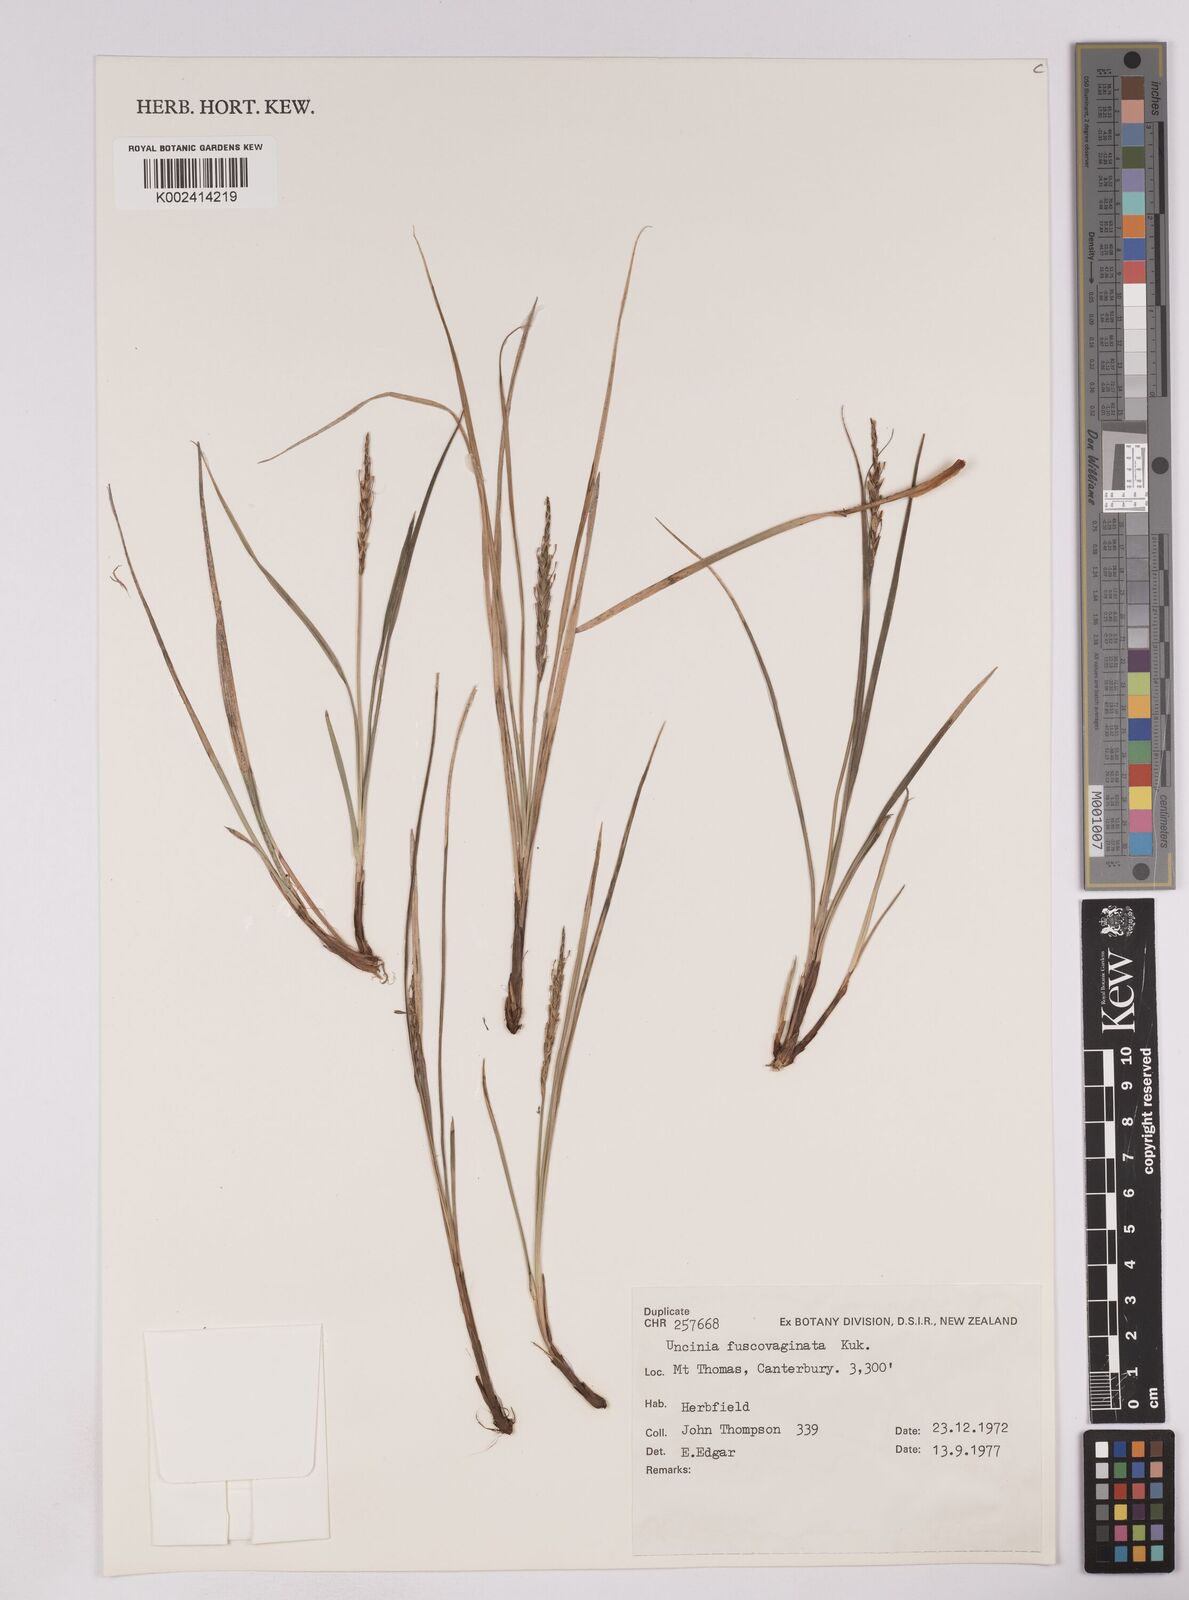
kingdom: Plantae
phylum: Tracheophyta
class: Liliopsida
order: Poales
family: Cyperaceae
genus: Carex
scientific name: Carex penalpina
